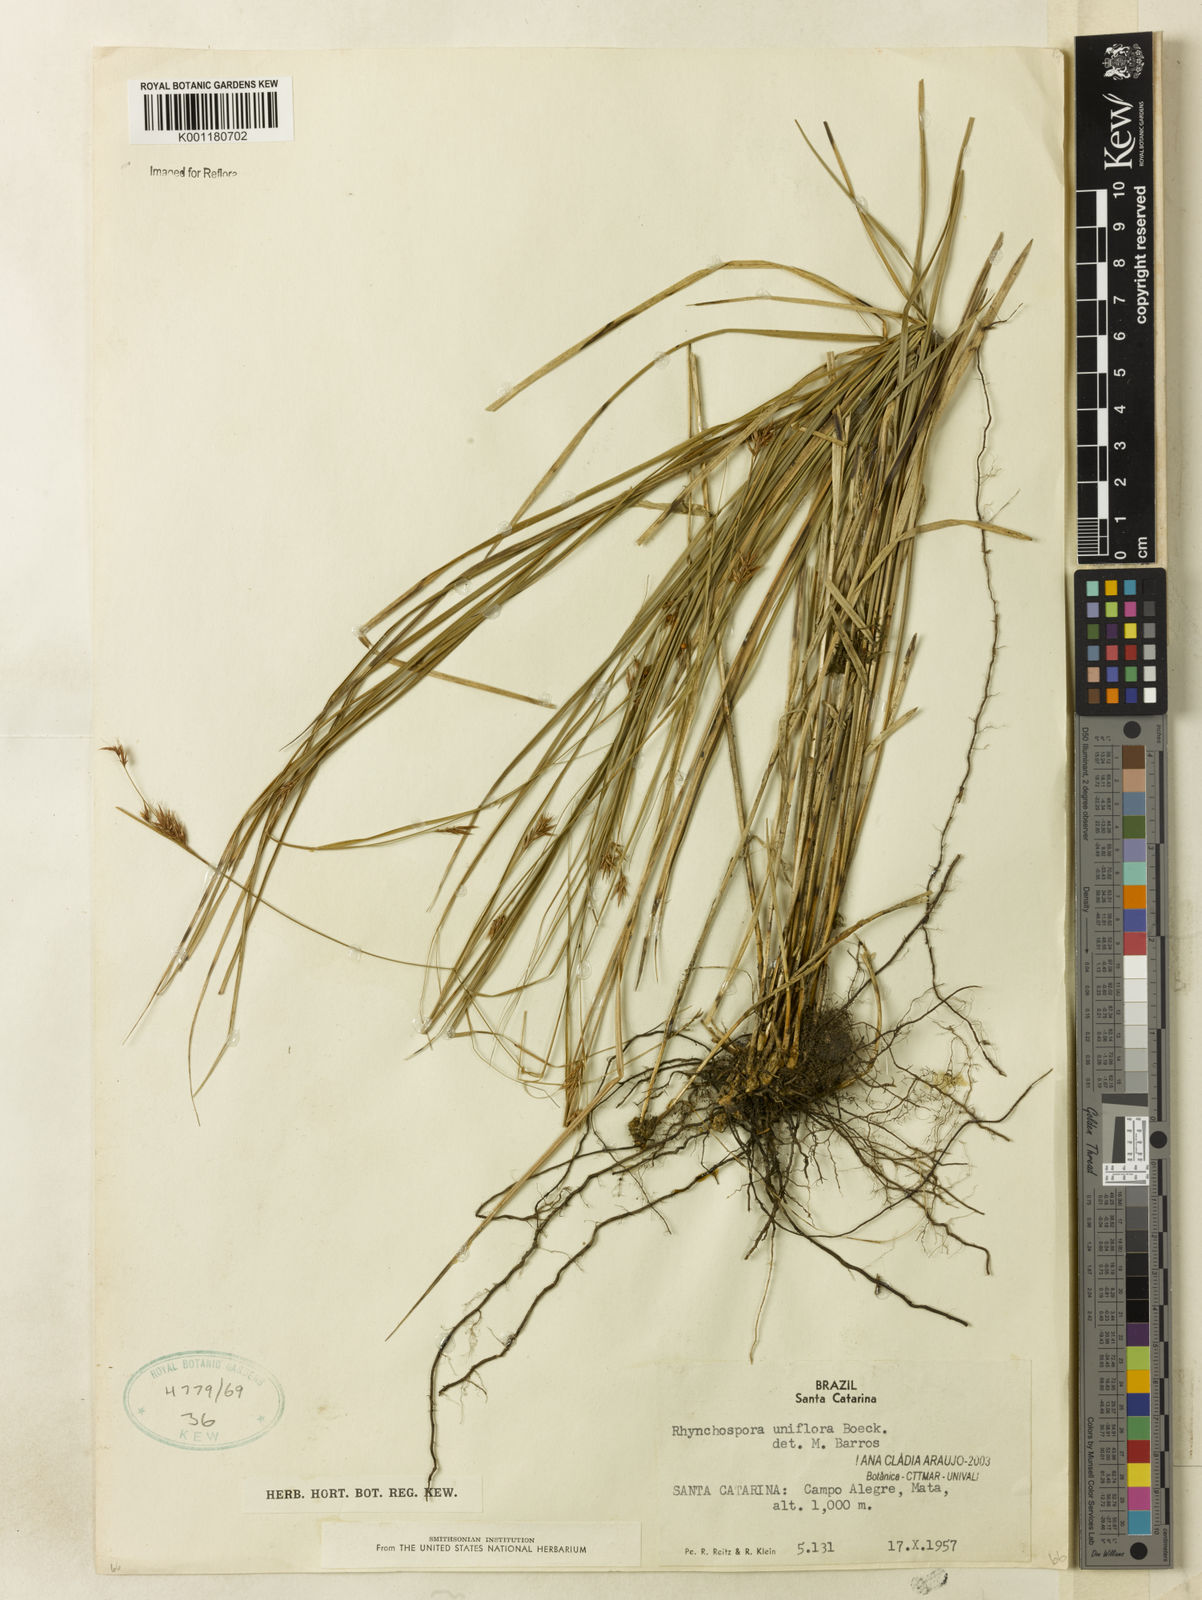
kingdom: Plantae
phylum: Tracheophyta
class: Liliopsida
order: Poales
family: Cyperaceae
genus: Rhynchospora
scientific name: Rhynchospora biflora
